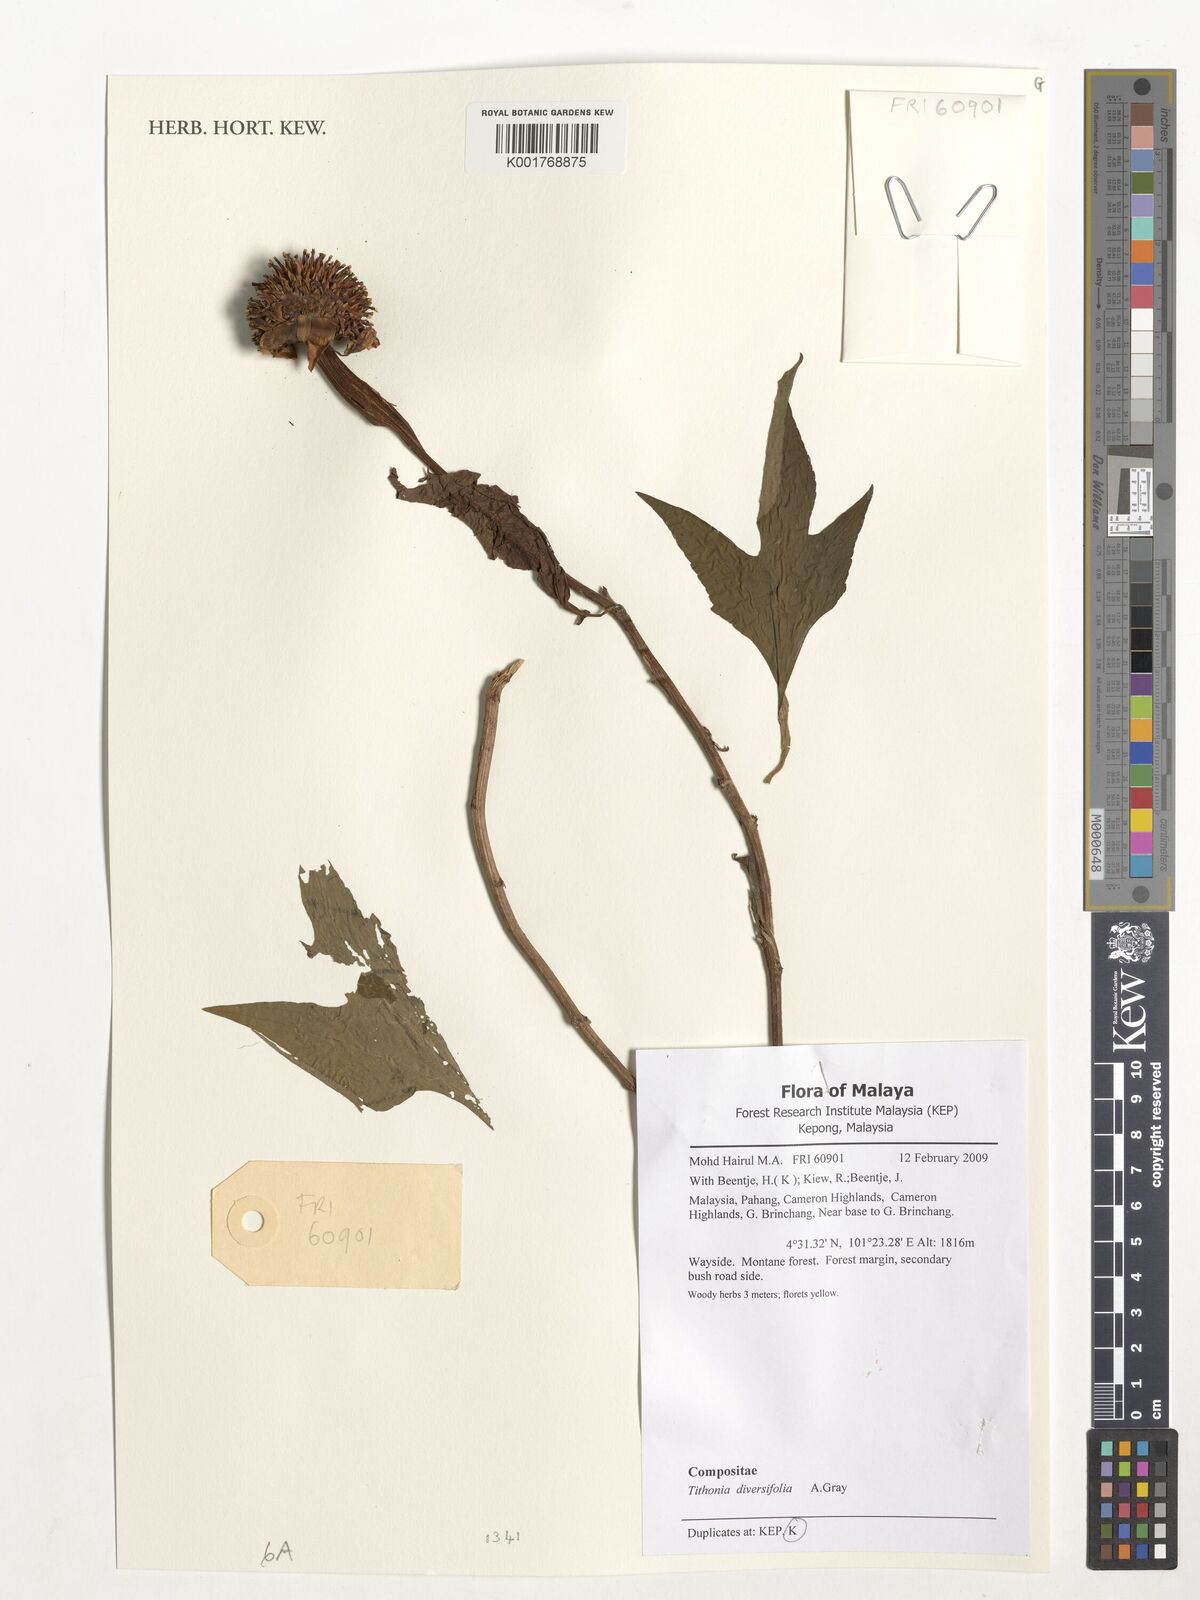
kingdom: Plantae
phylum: Tracheophyta
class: Magnoliopsida
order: Asterales
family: Asteraceae
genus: Tithonia
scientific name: Tithonia diversifolia
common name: Tree marigold
